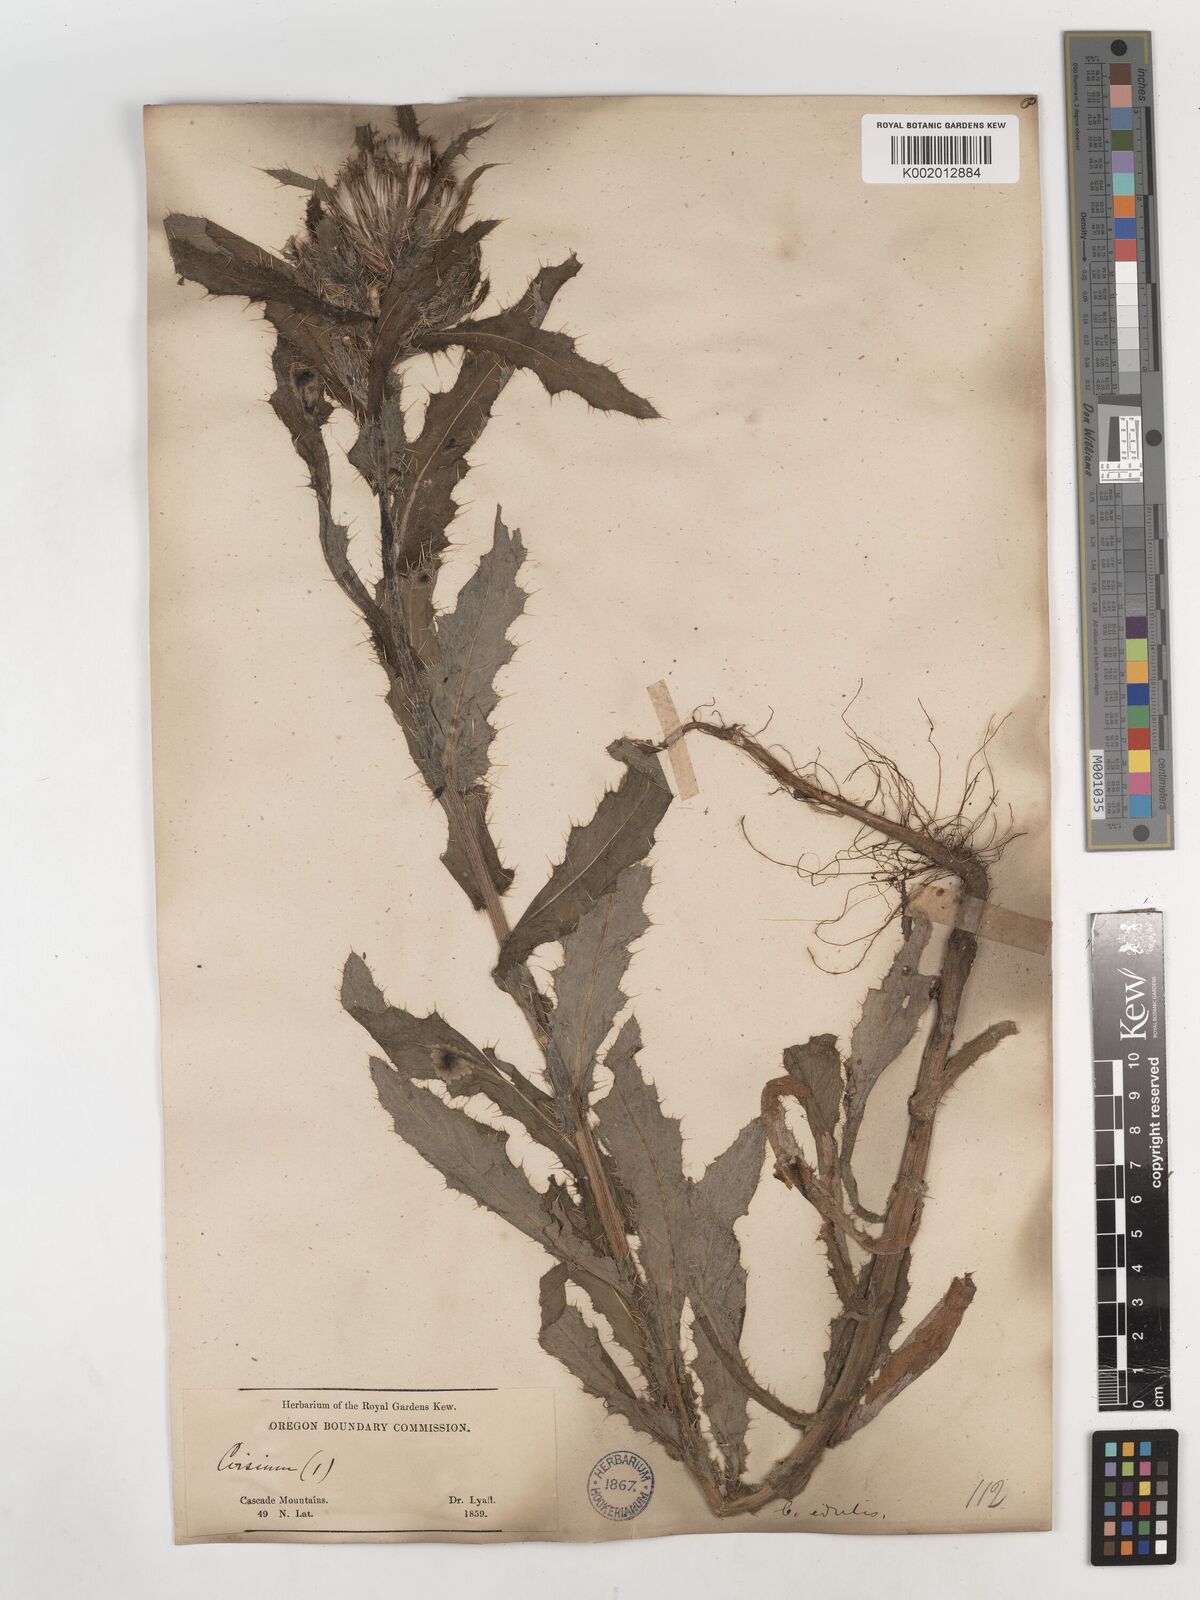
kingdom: Plantae
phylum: Tracheophyta
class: Magnoliopsida
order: Asterales
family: Asteraceae
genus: Cirsium
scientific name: Cirsium edule
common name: Indian thistle
